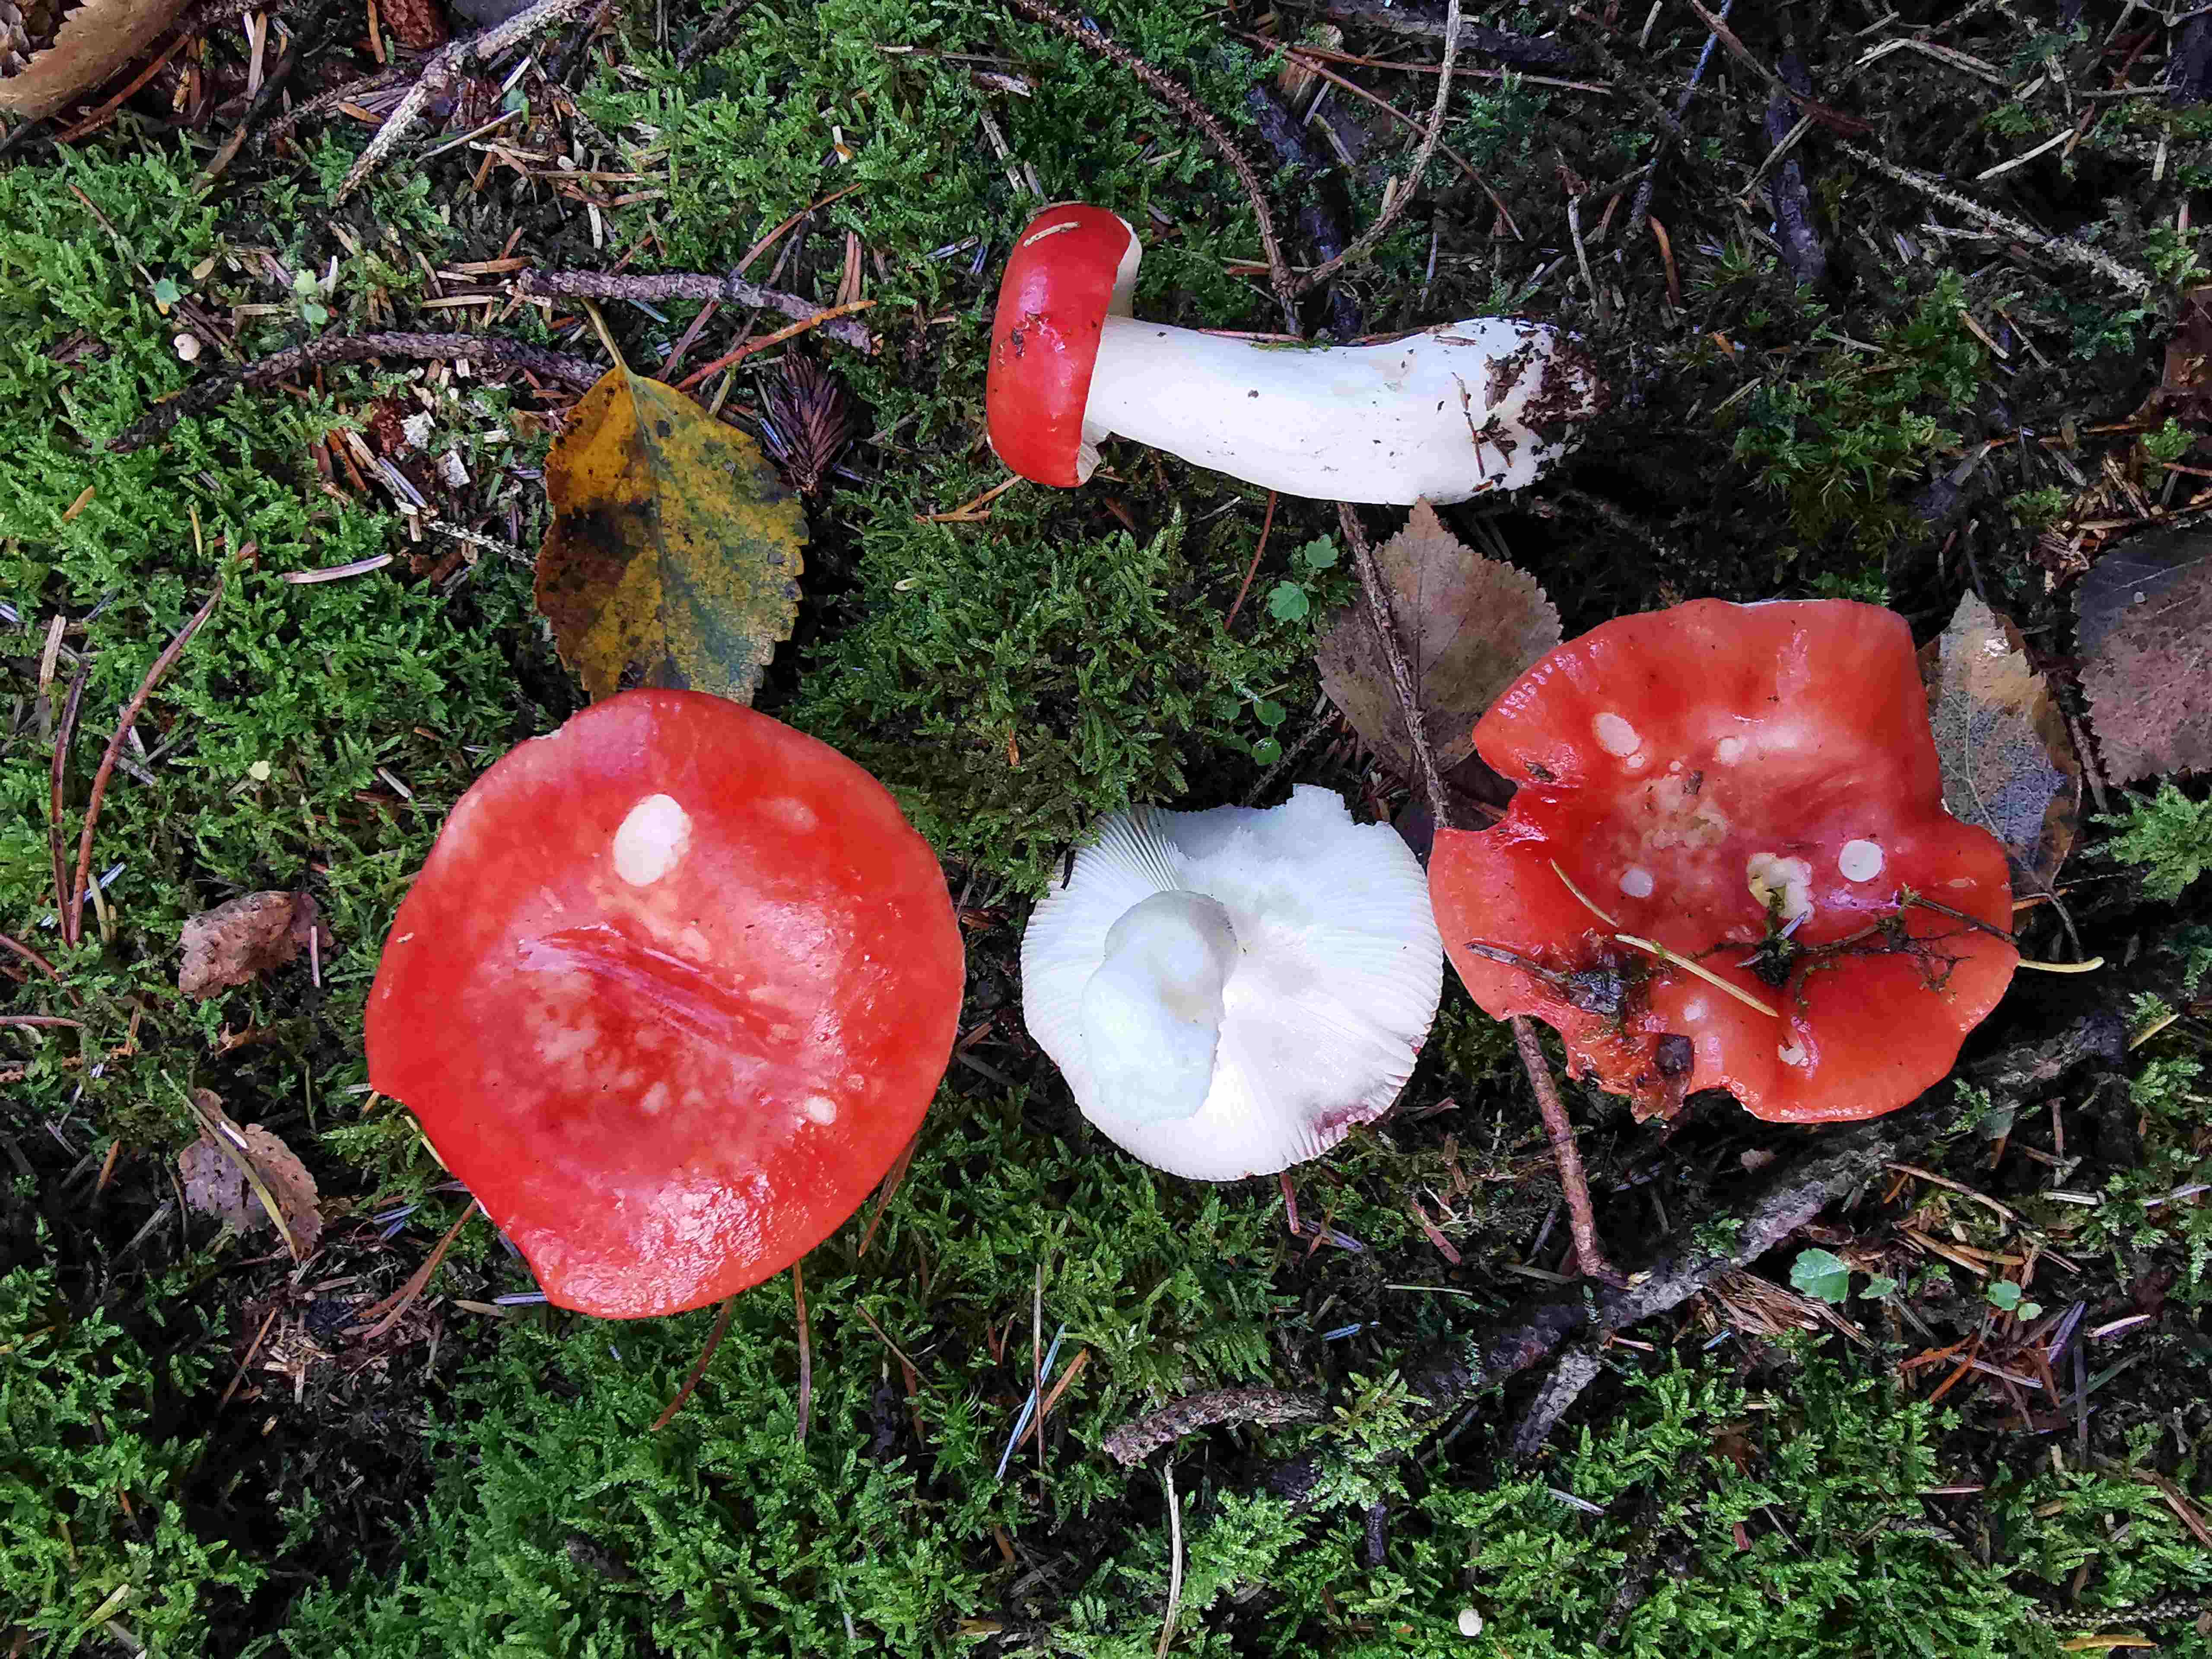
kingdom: Fungi
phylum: Basidiomycota
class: Agaricomycetes
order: Russulales
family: Russulaceae
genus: Russula
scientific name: Russula
